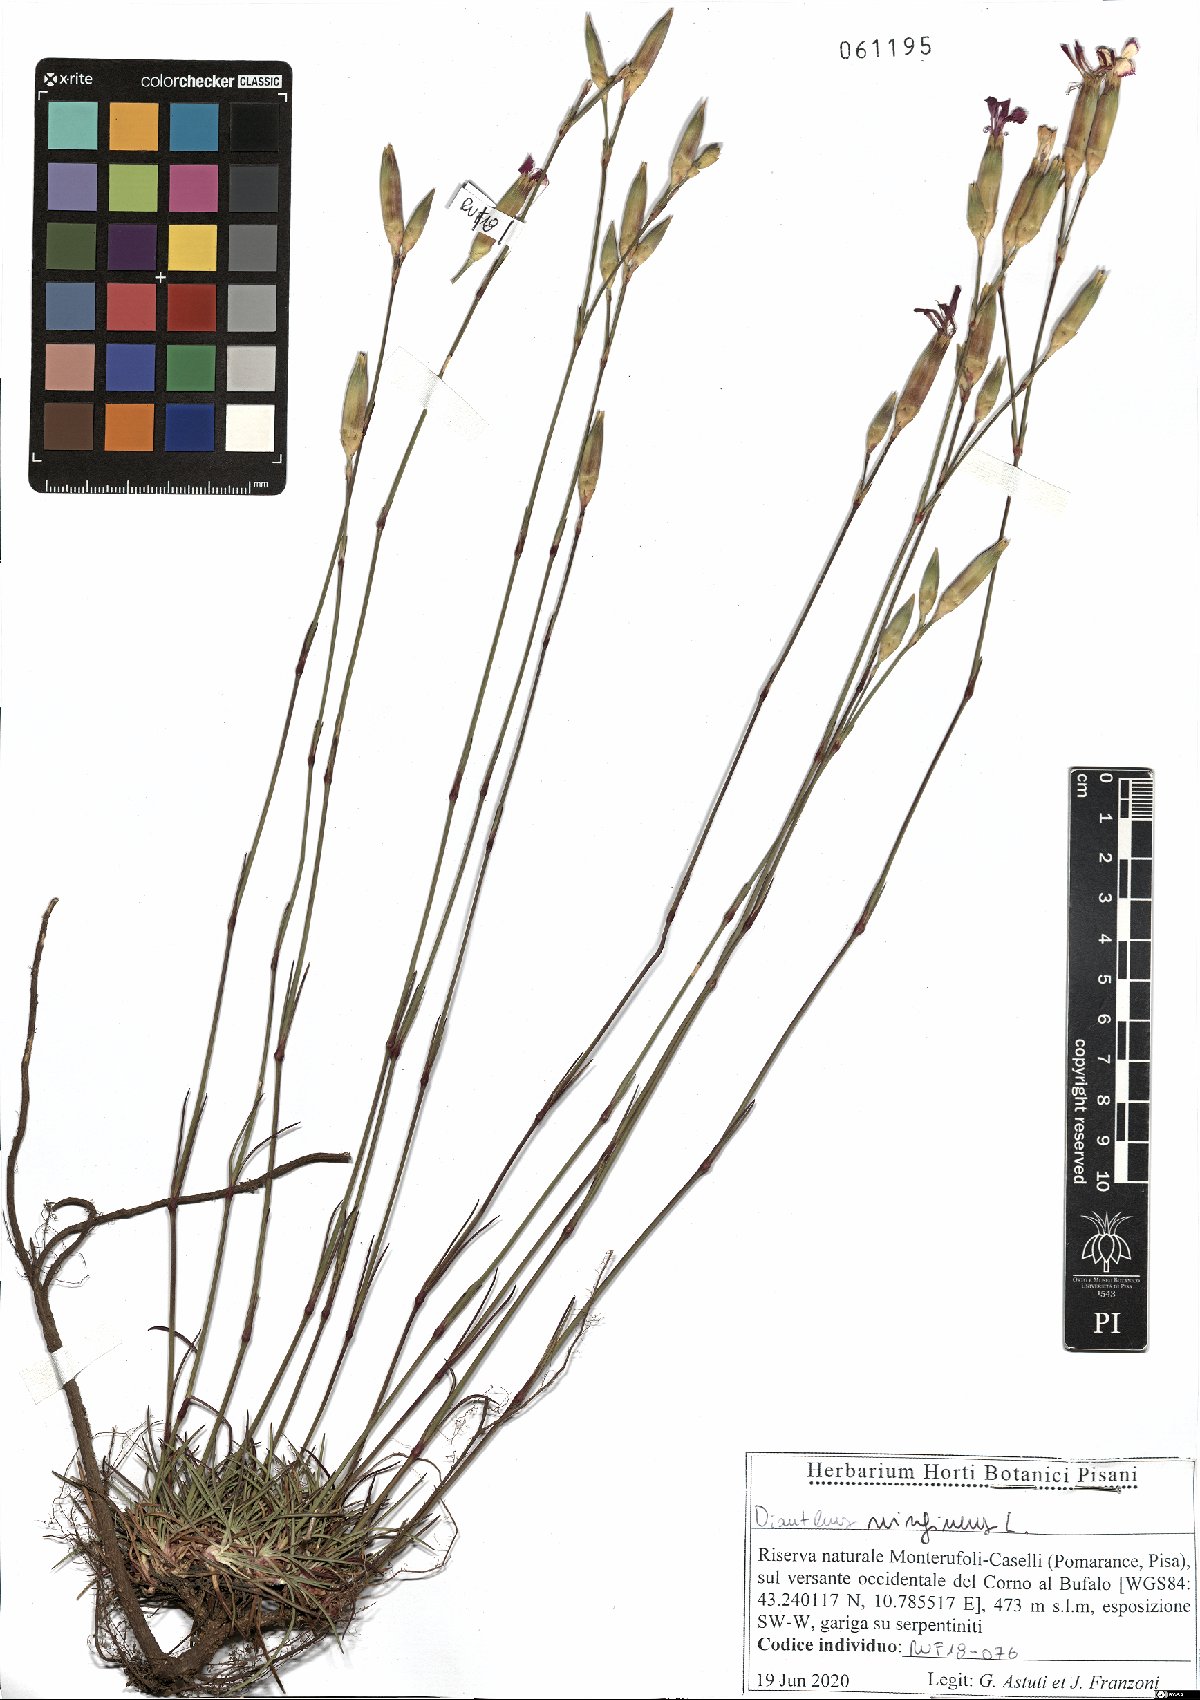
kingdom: Plantae
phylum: Tracheophyta
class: Magnoliopsida
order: Caryophyllales
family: Caryophyllaceae
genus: Dianthus
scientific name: Dianthus virgineus
